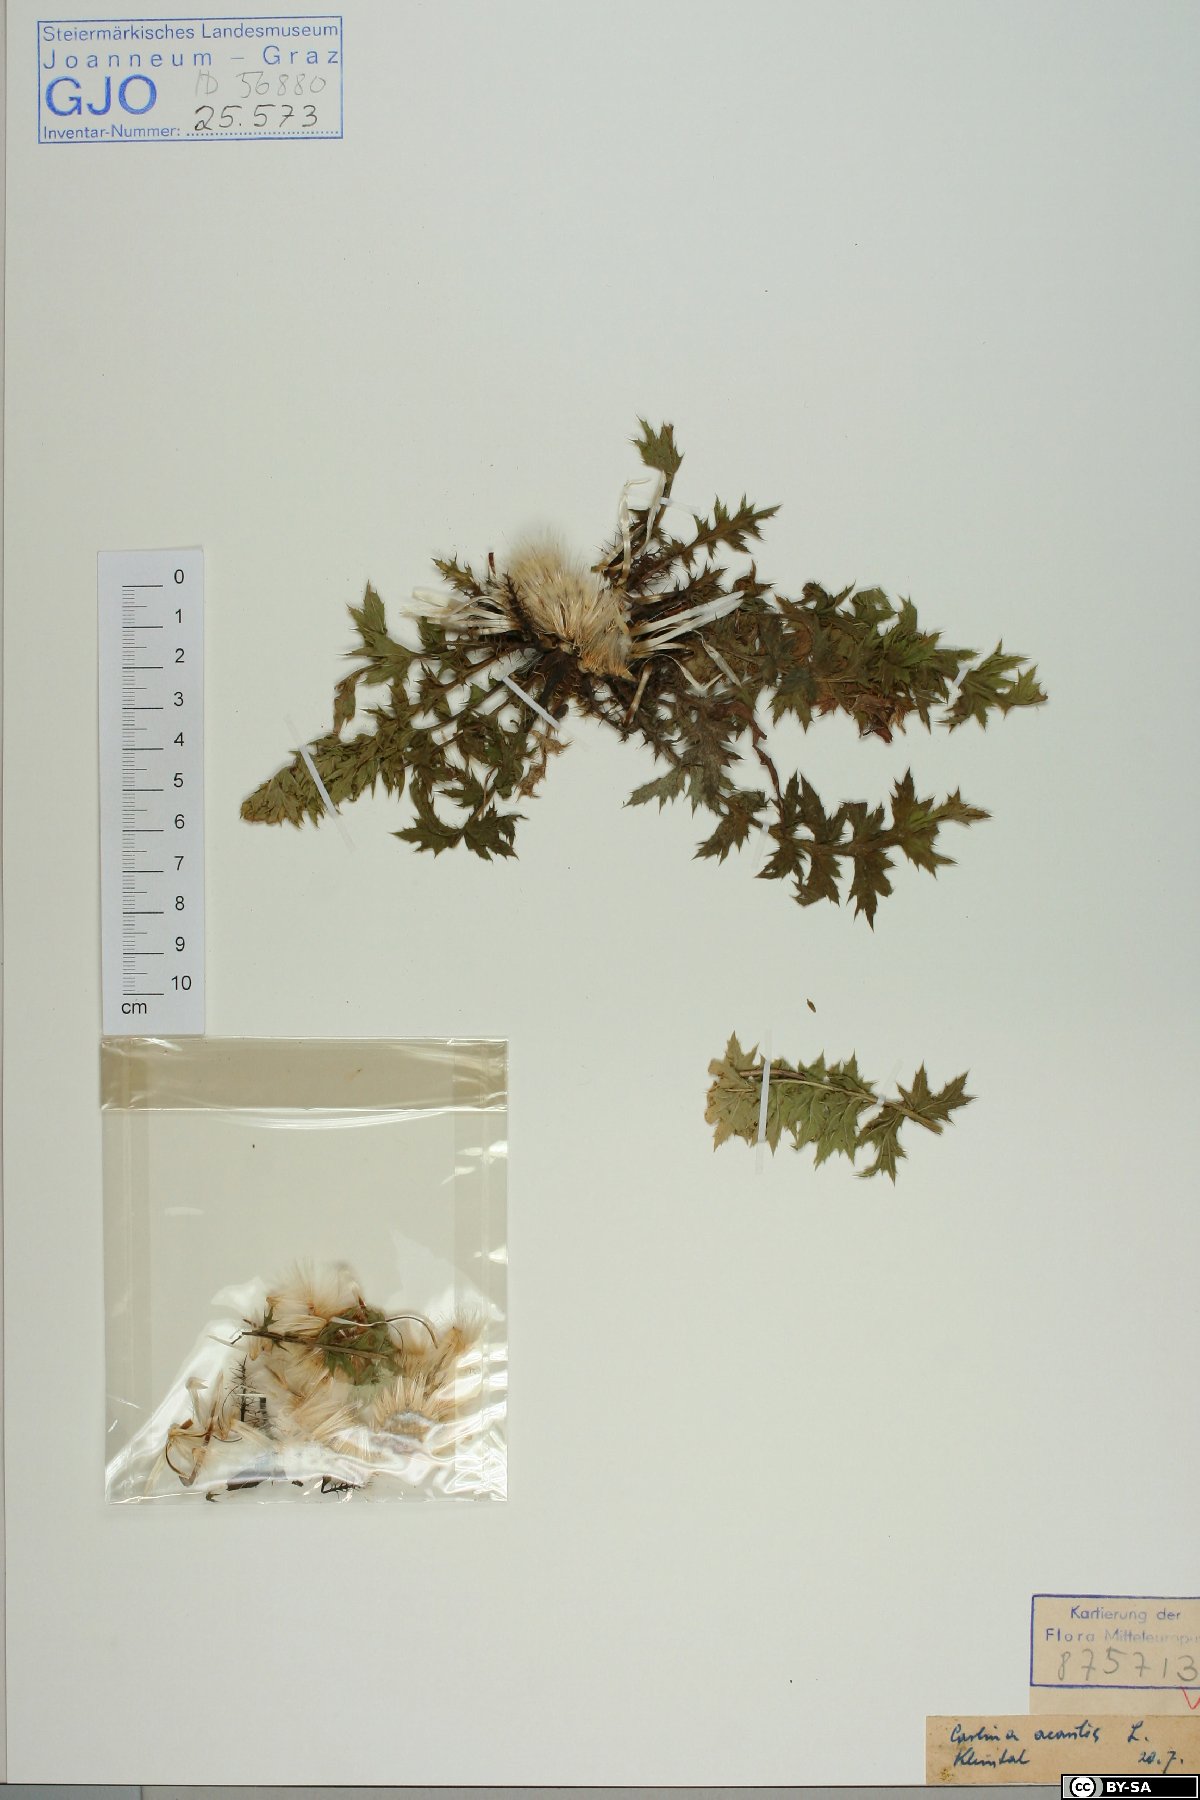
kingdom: Plantae
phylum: Tracheophyta
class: Magnoliopsida
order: Asterales
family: Asteraceae
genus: Carlina
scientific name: Carlina acaulis
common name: Stemless carline thistle
